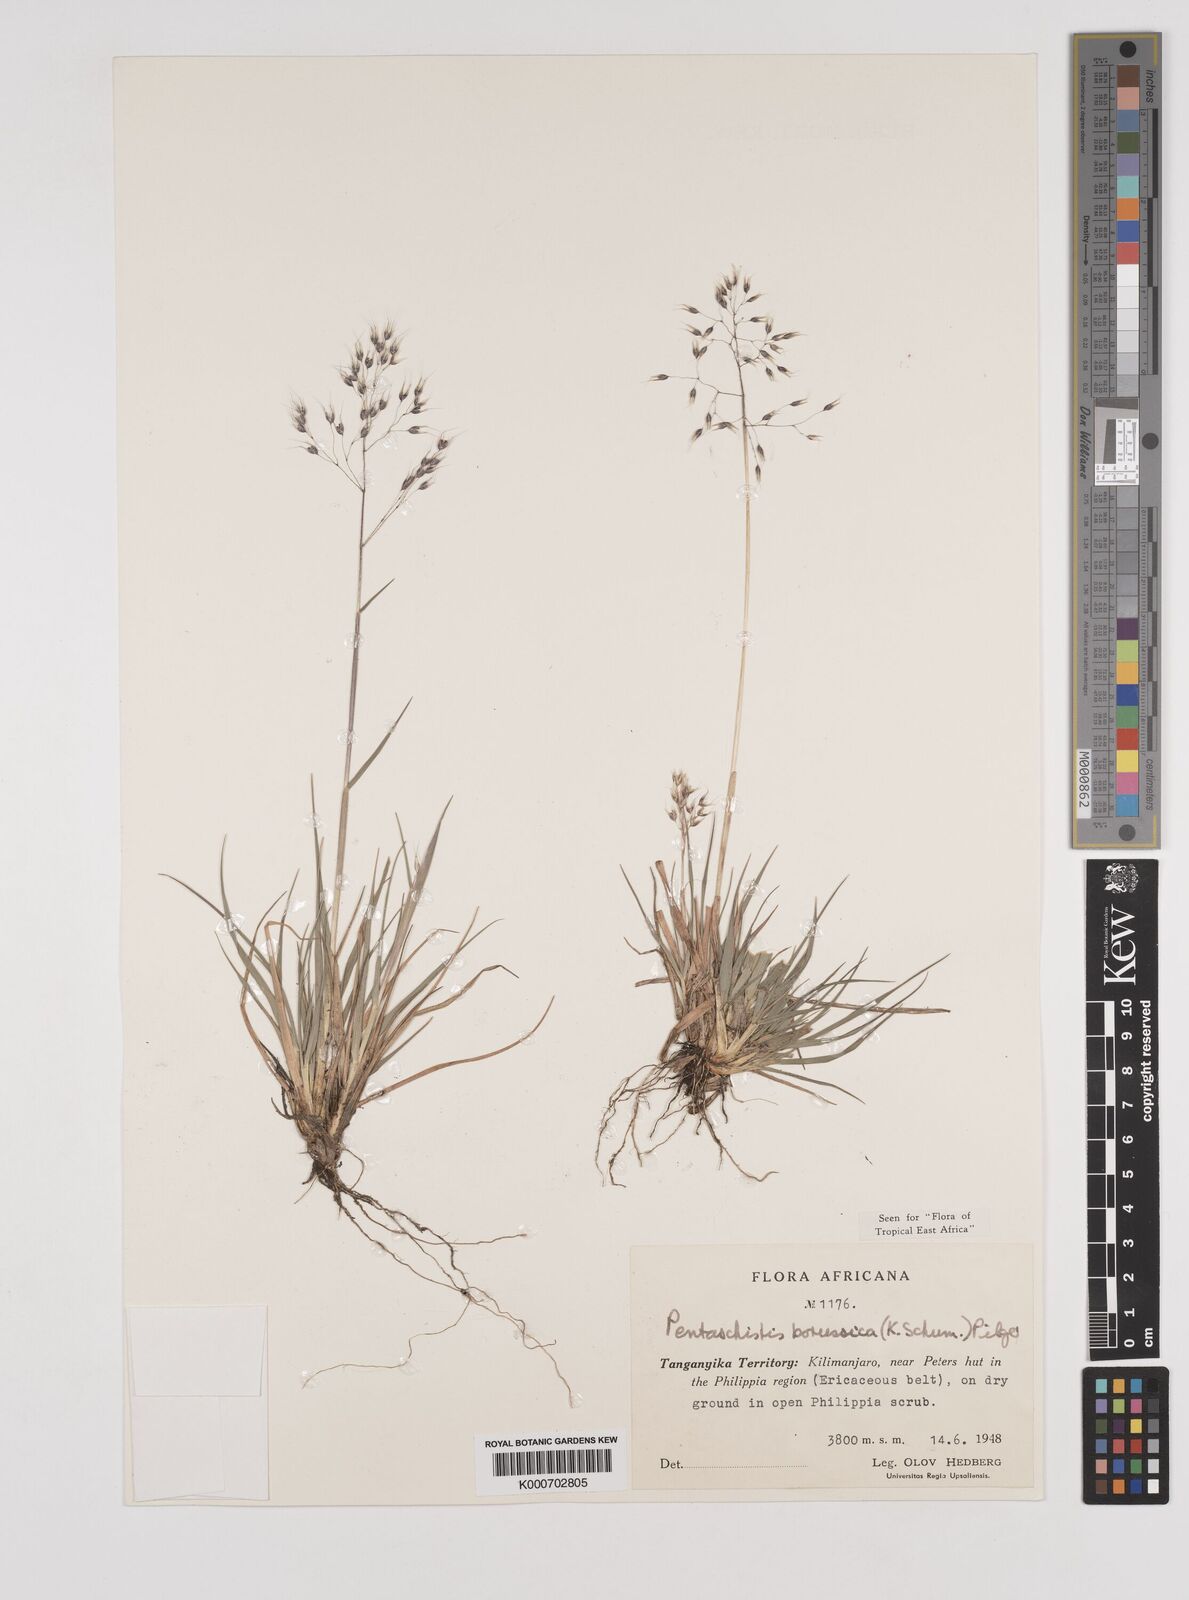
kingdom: Plantae
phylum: Tracheophyta
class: Liliopsida
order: Poales
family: Poaceae
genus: Pentameris
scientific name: Pentameris borussica
